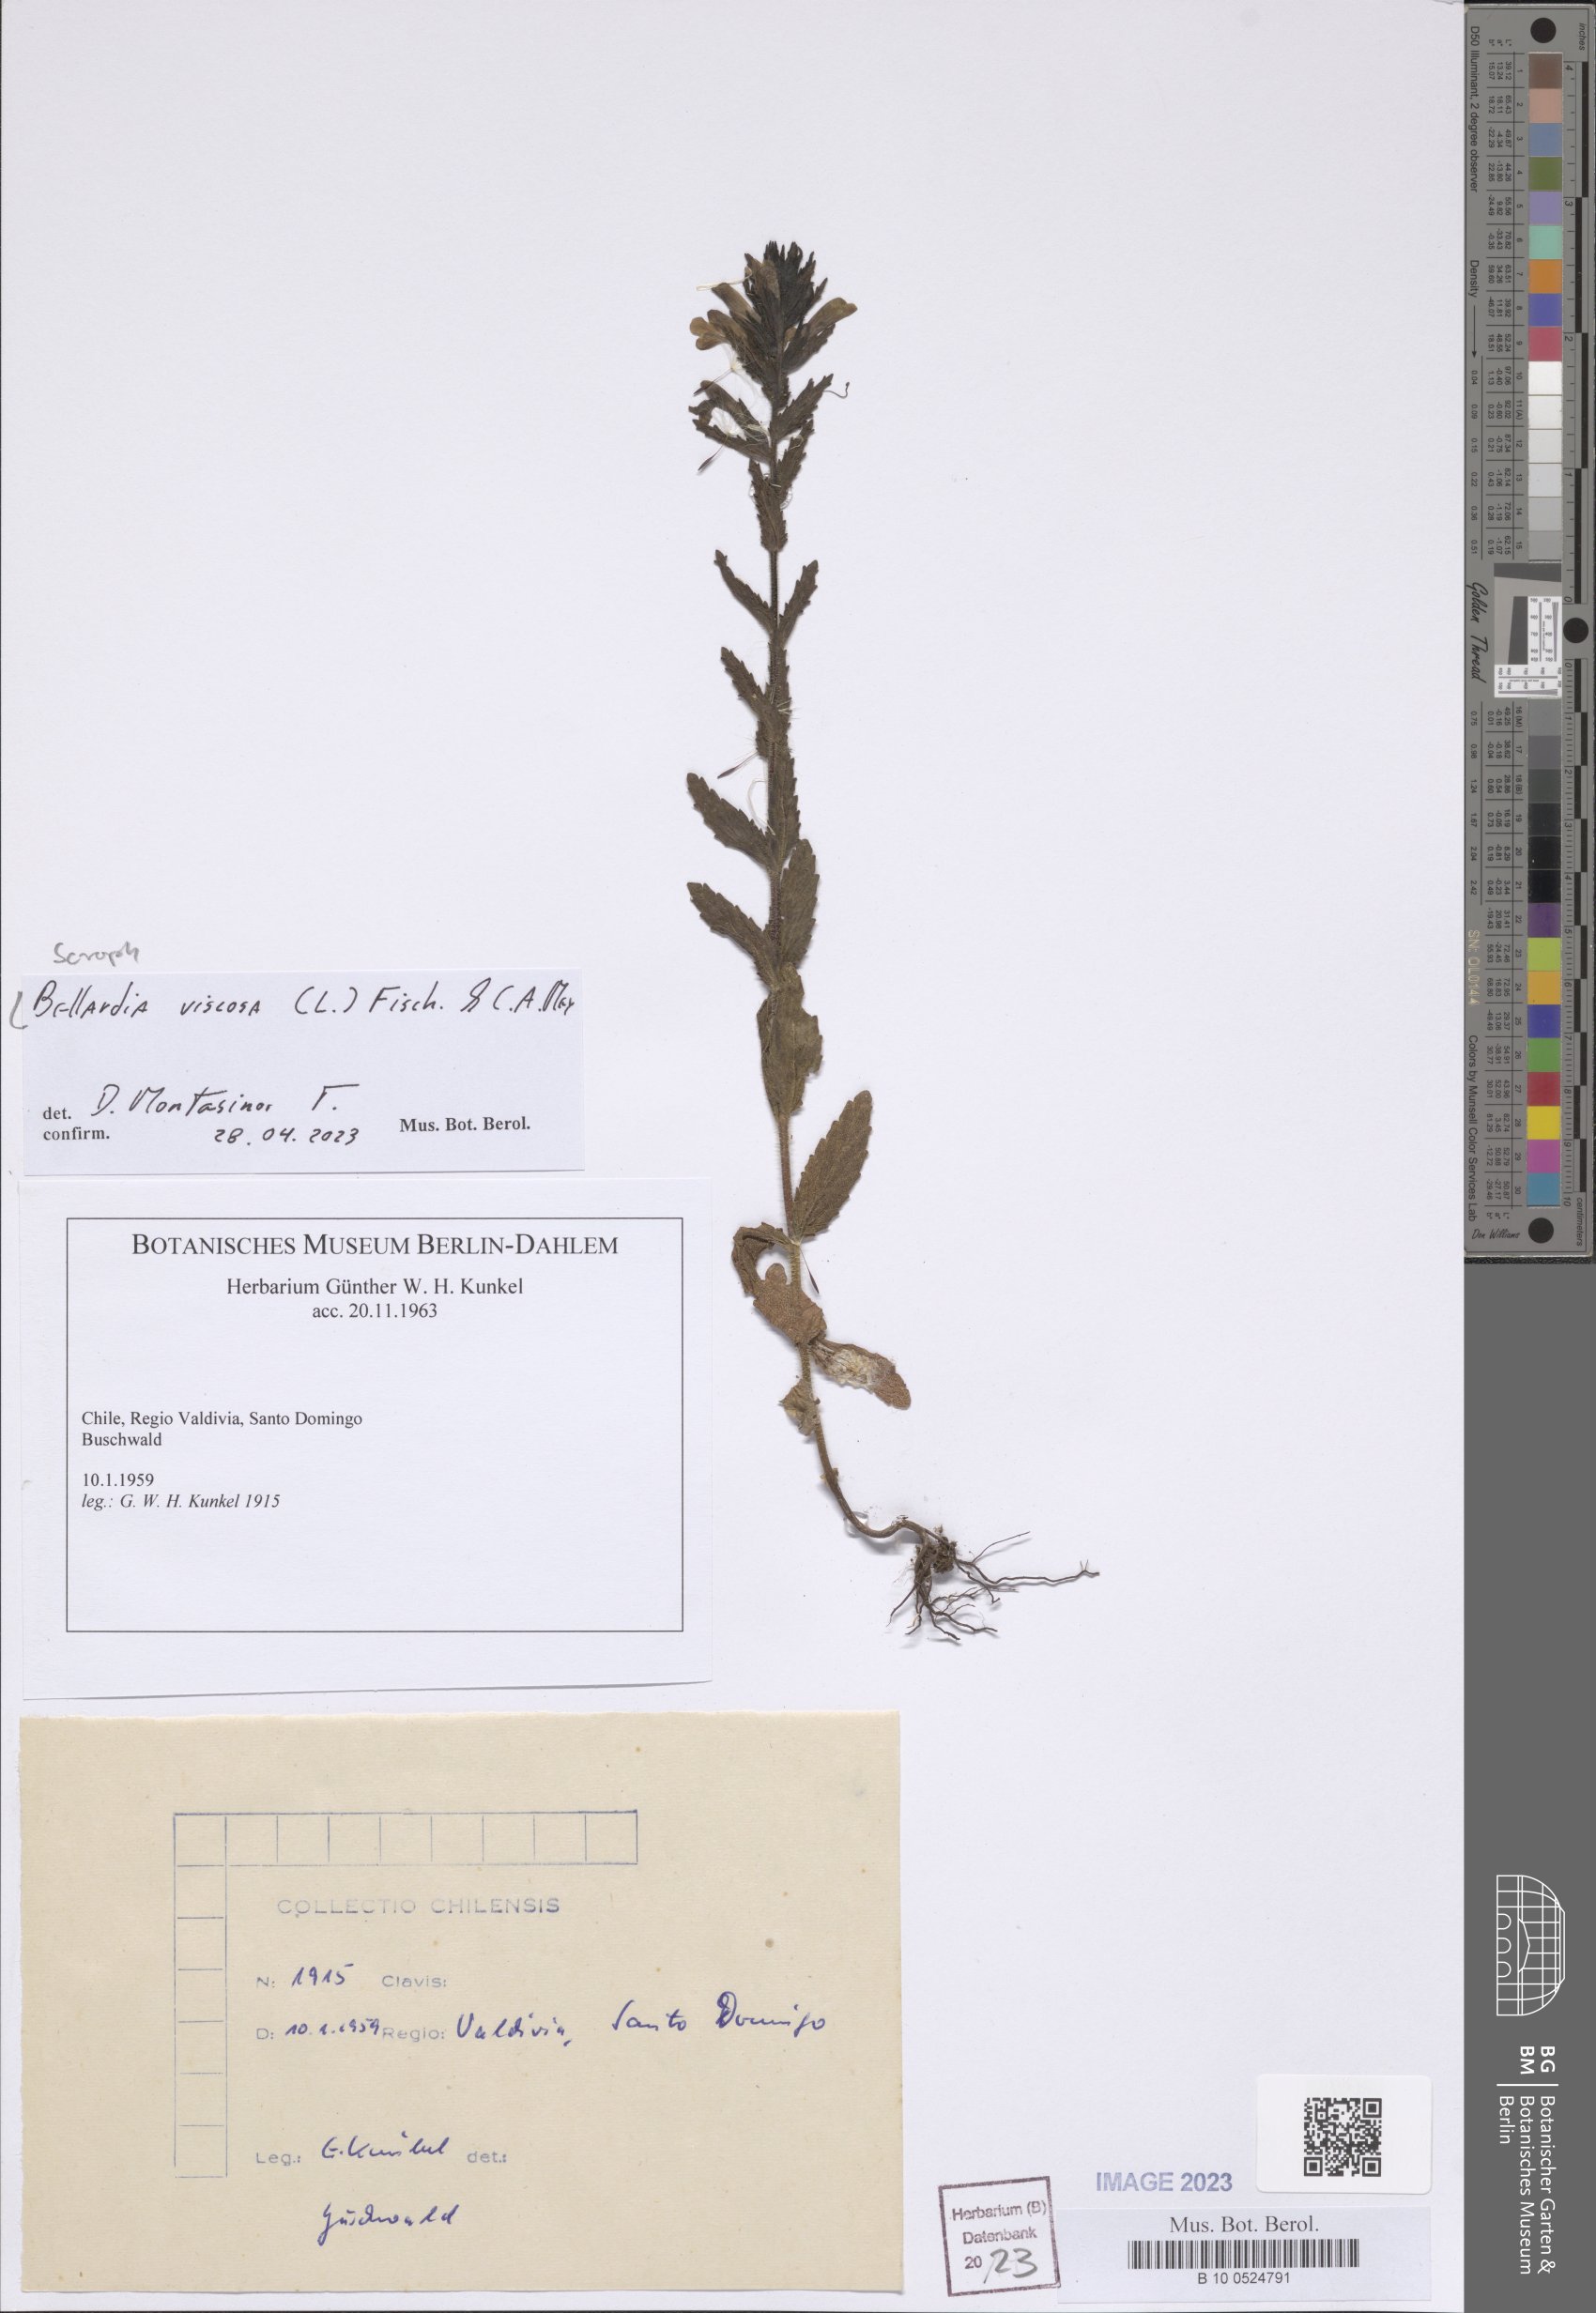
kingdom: Plantae
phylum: Tracheophyta
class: Magnoliopsida
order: Lamiales
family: Orobanchaceae
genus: Bellardia
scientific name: Bellardia trixago
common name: Mediterranean lineseed
